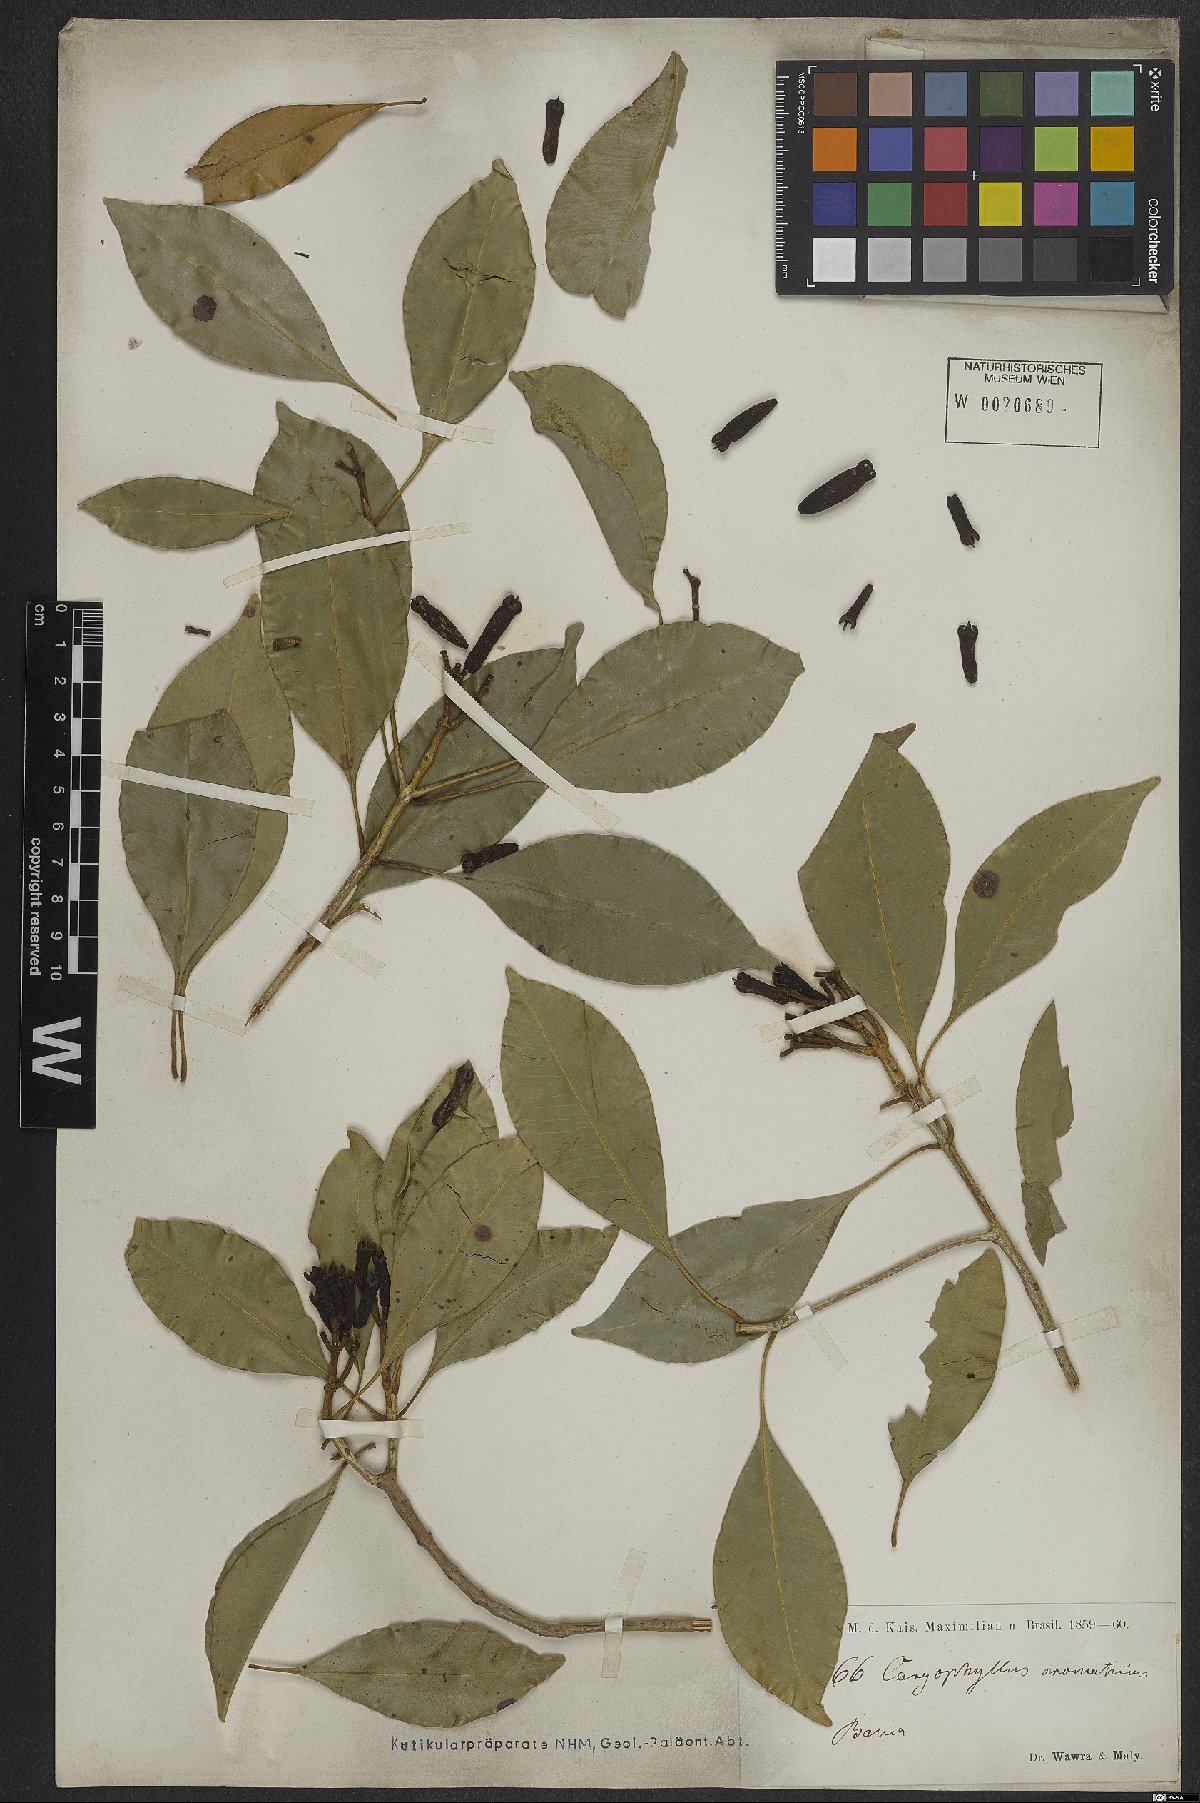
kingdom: Plantae
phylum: Tracheophyta
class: Magnoliopsida
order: Myrtales
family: Myrtaceae
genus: Syzygium
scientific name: Syzygium aromaticum
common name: Clove
